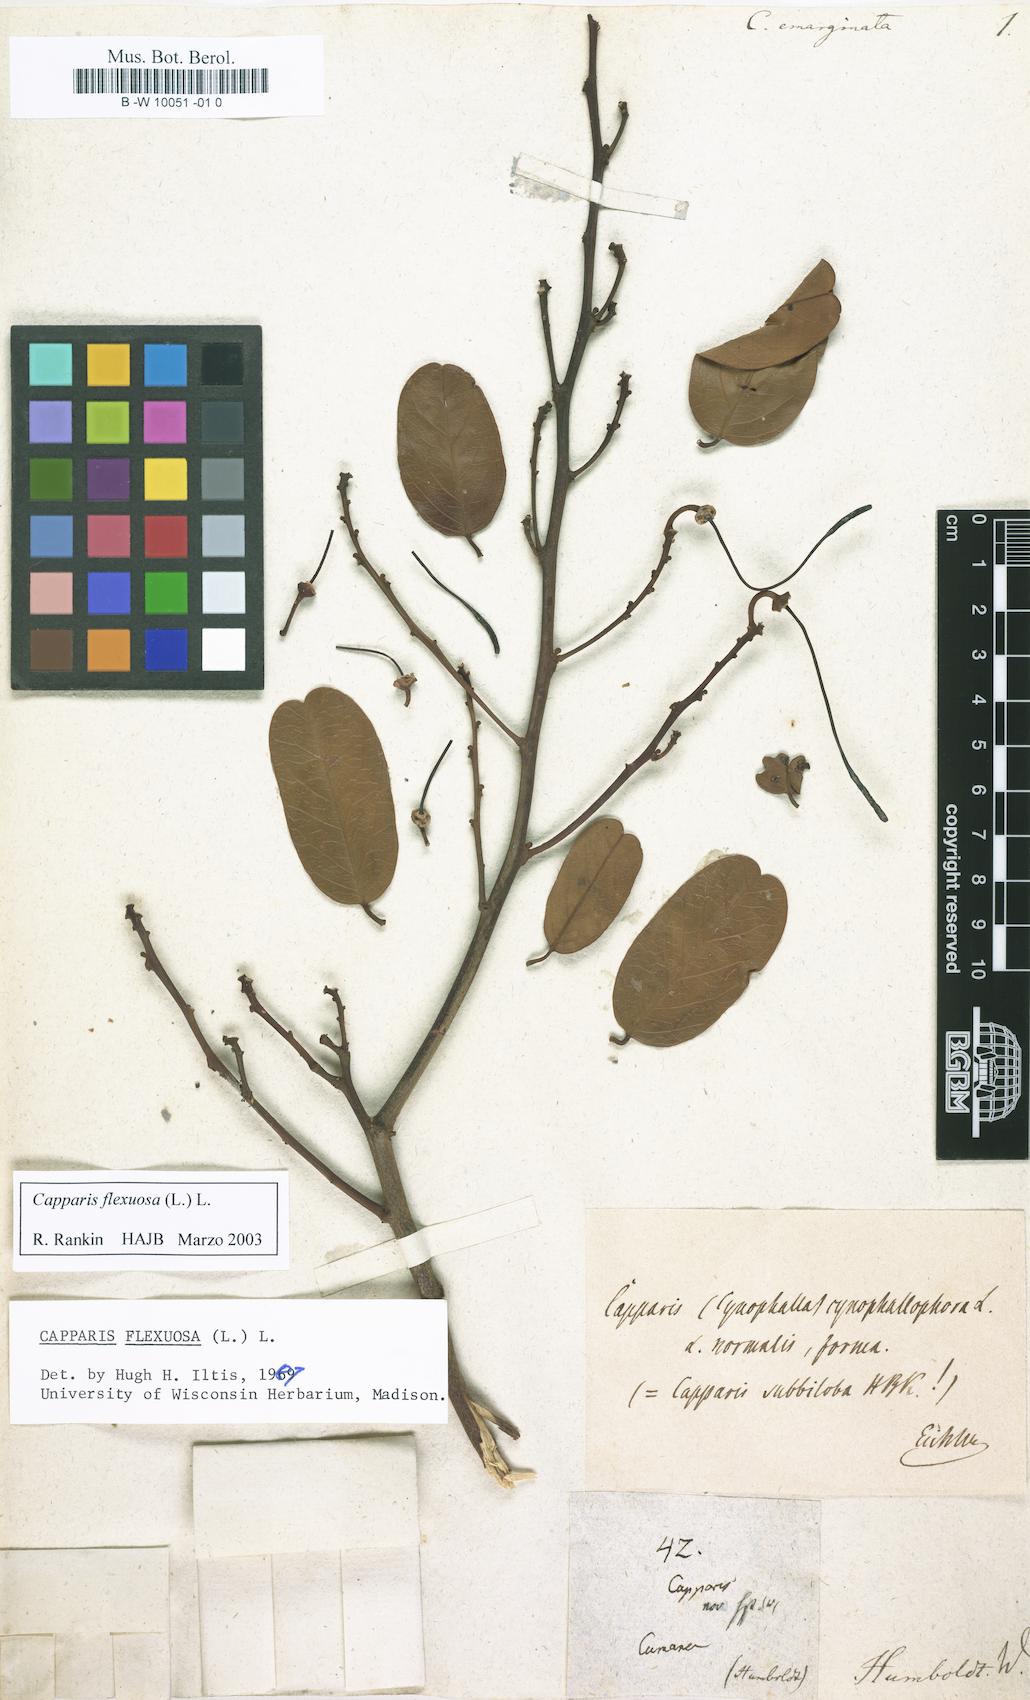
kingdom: Plantae
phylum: Tracheophyta
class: Magnoliopsida
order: Brassicales
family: Capparaceae
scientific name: Capparaceae
